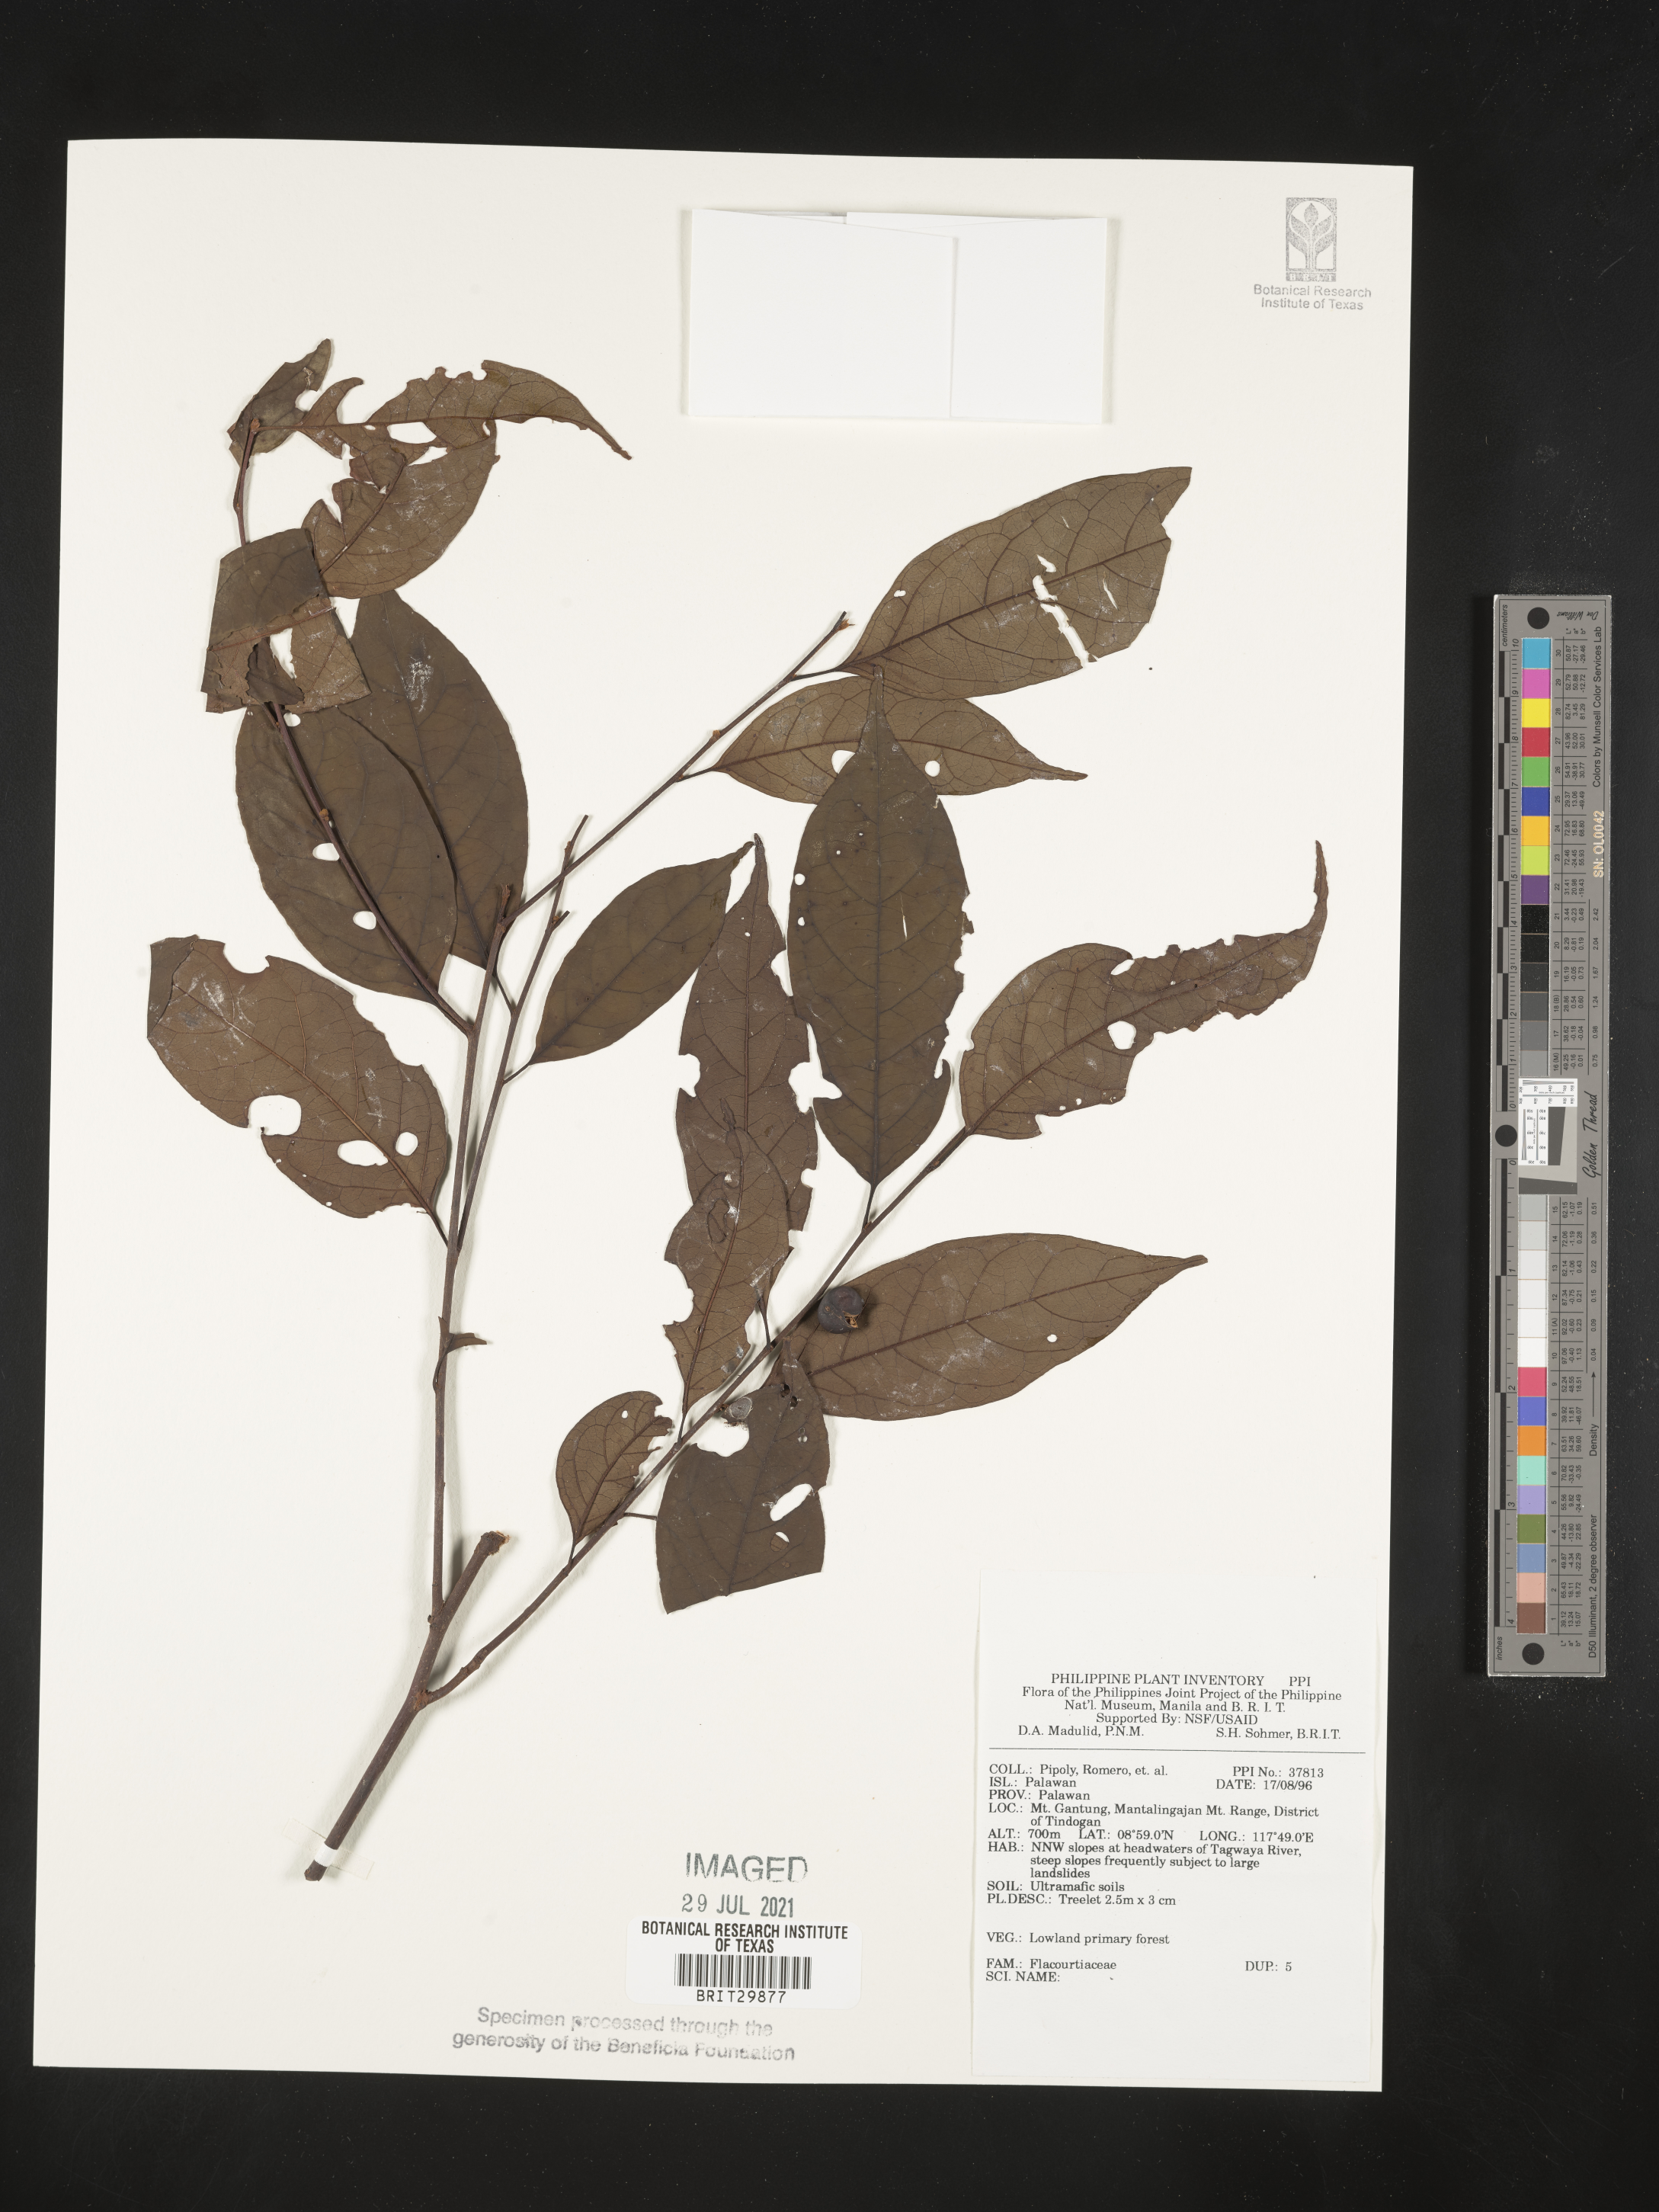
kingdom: Plantae
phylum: Tracheophyta
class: Magnoliopsida
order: Malpighiales
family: Flacourtiaceae
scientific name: Flacourtiaceae
